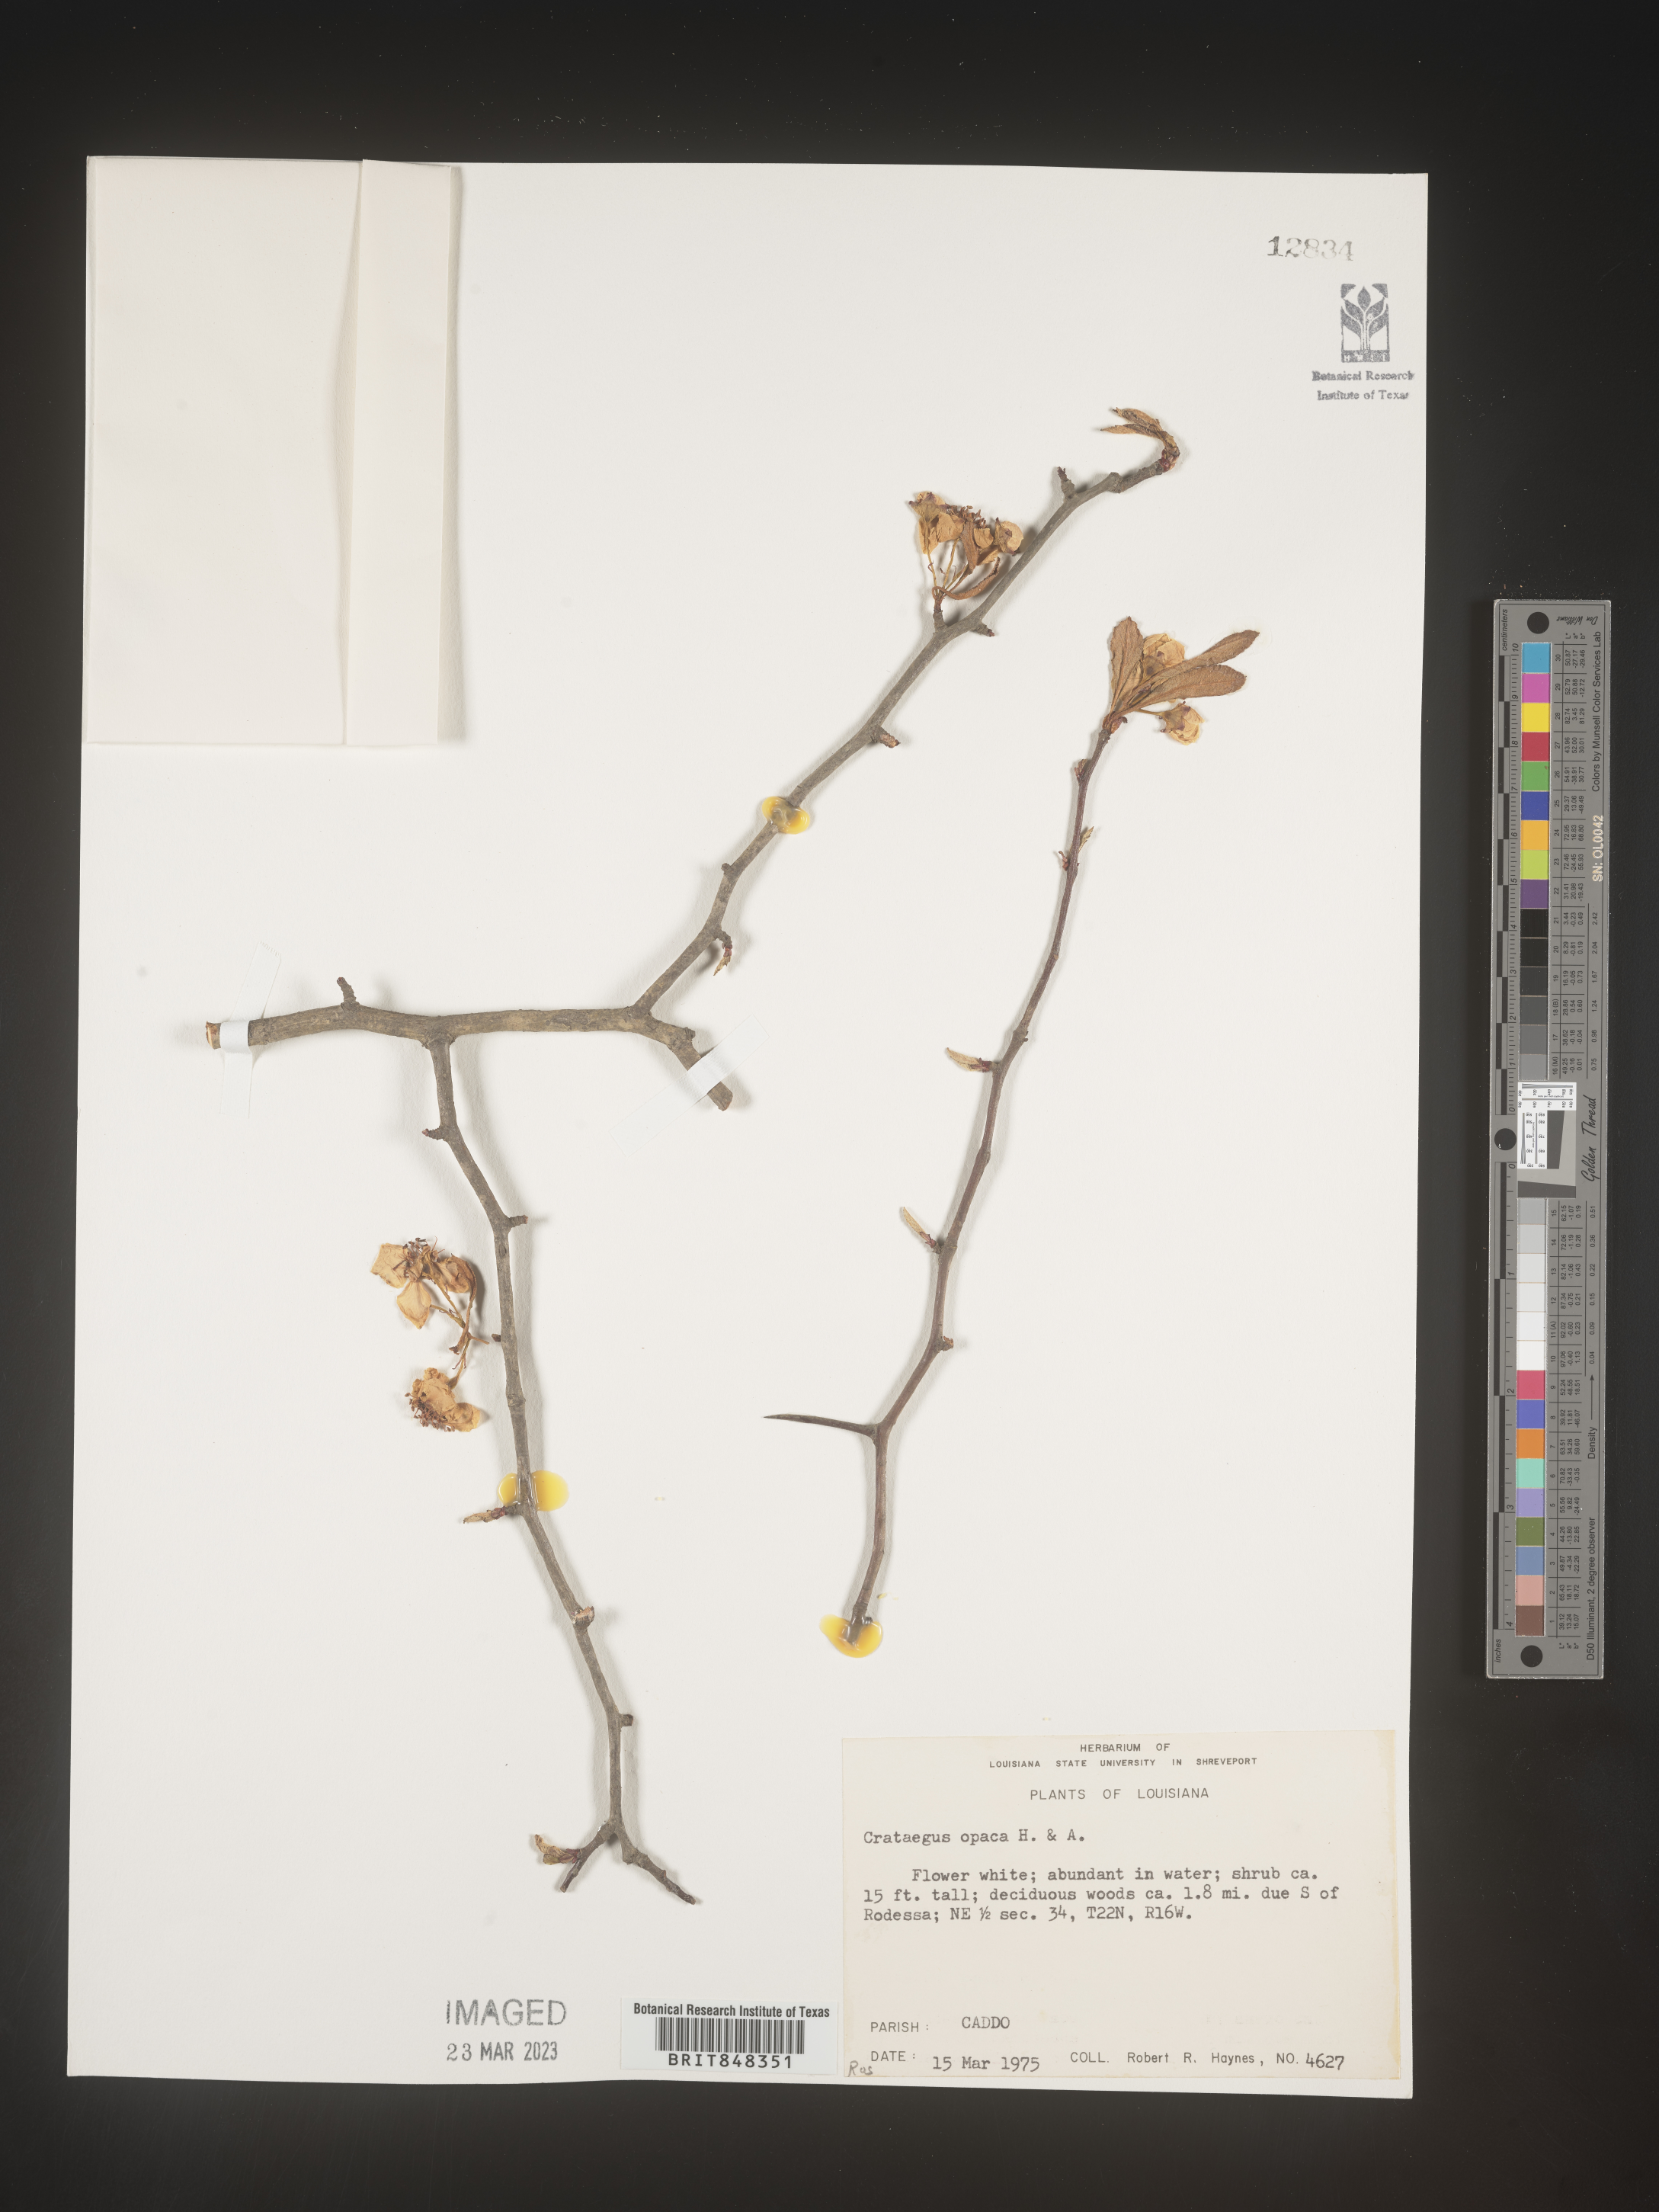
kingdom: Plantae
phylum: Tracheophyta
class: Magnoliopsida
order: Rosales
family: Rosaceae
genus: Crataegus
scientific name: Crataegus opaca
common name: Apple haw
